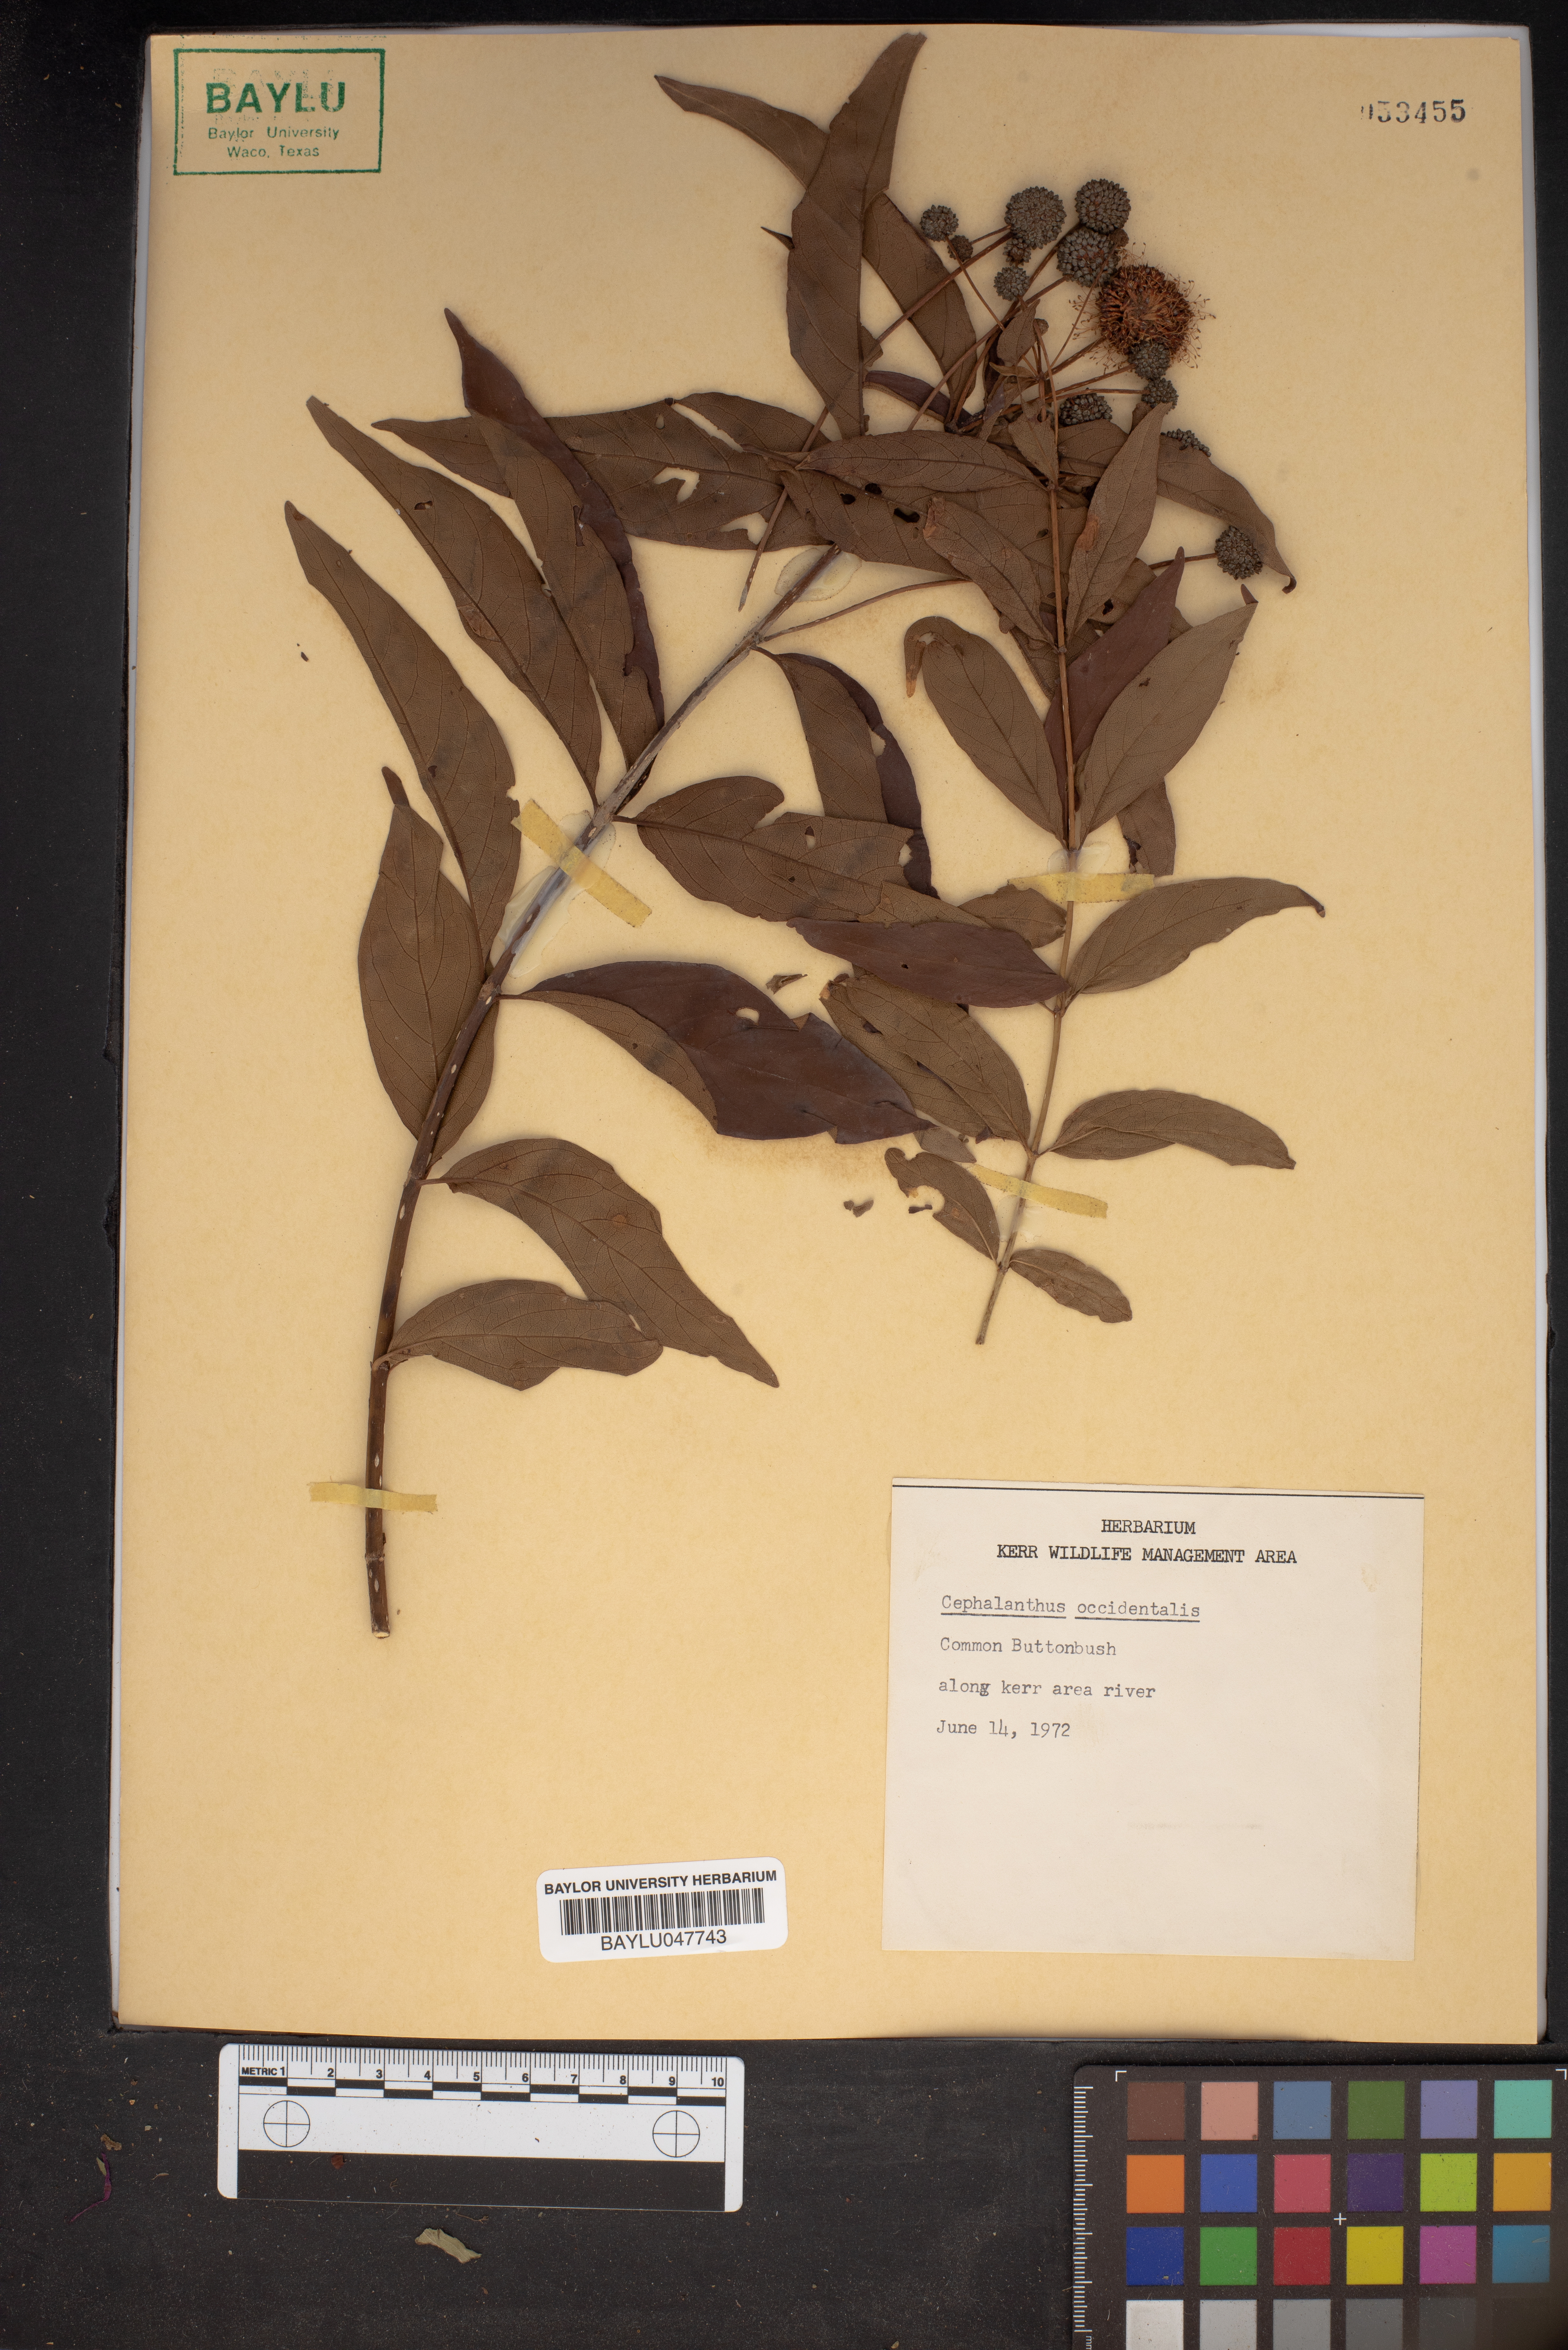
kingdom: Plantae
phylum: Tracheophyta
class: Magnoliopsida
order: Gentianales
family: Rubiaceae
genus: Cephalanthus
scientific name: Cephalanthus occidentalis
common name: Button-willow
